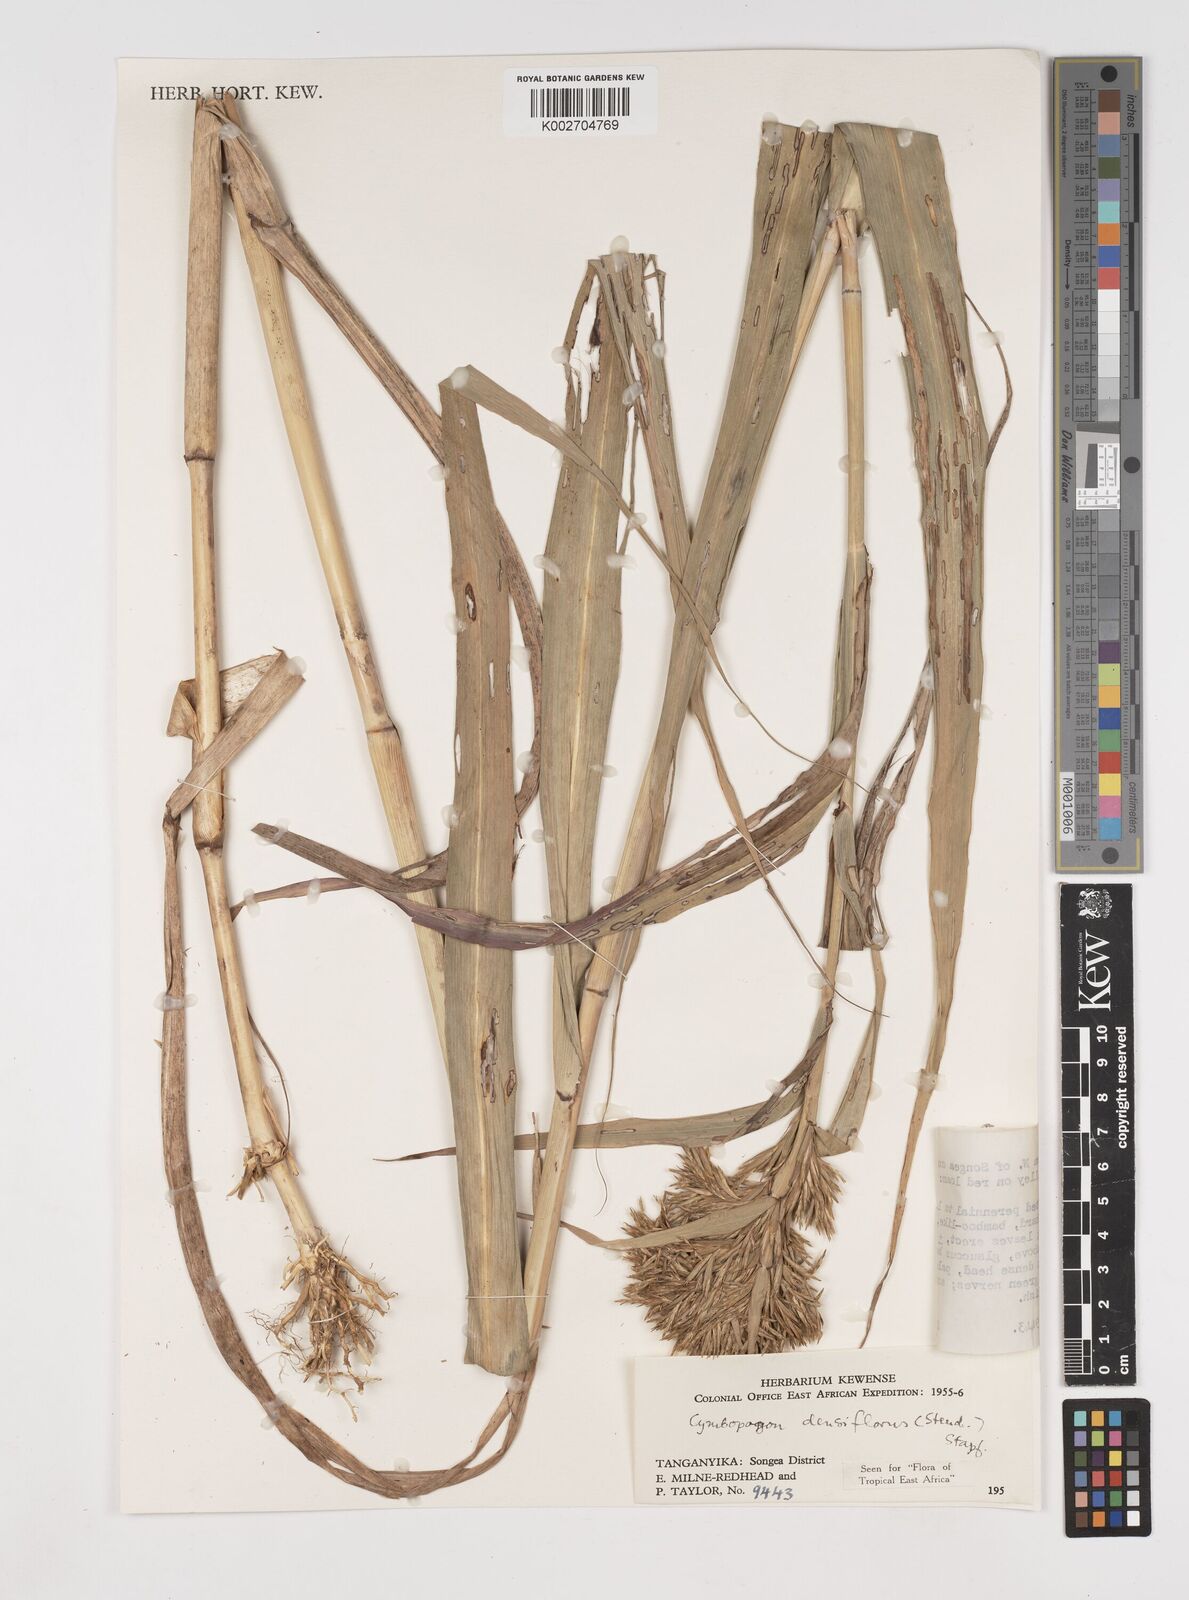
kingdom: Plantae
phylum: Tracheophyta
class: Liliopsida
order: Poales
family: Poaceae
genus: Cymbopogon
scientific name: Cymbopogon densiflorus
